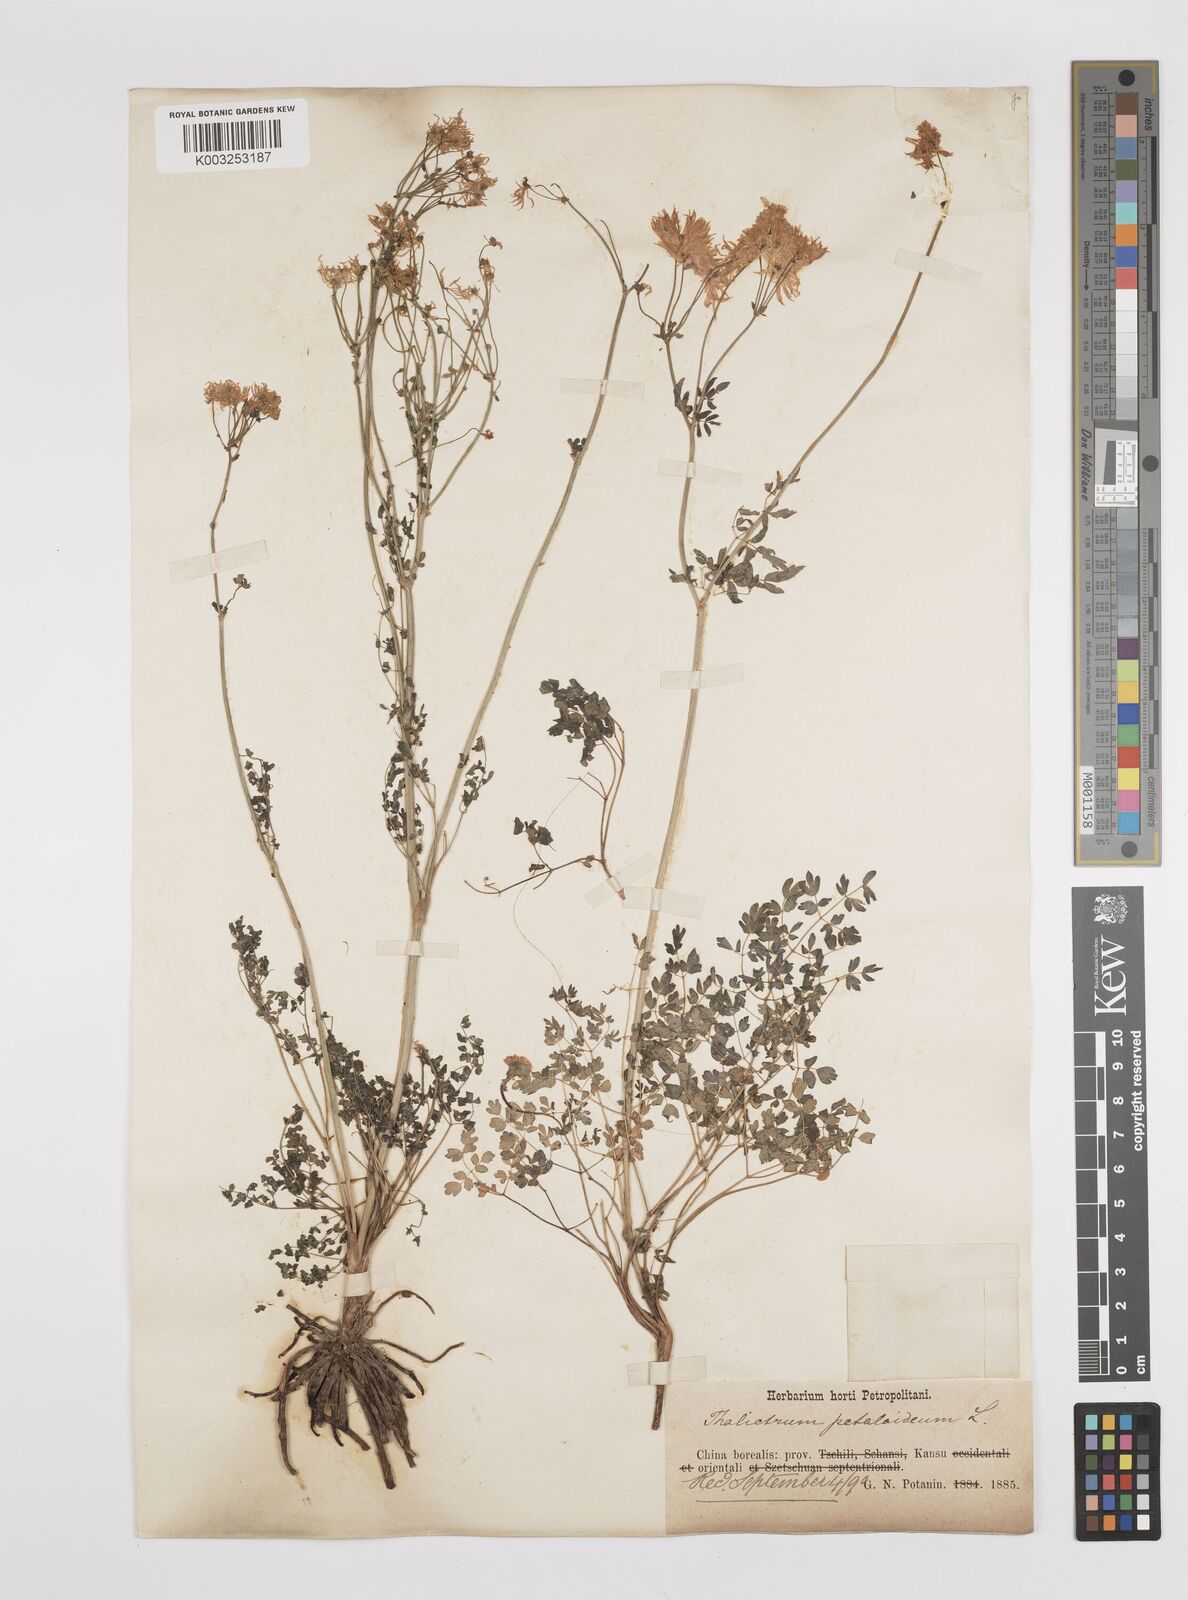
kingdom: Plantae
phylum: Tracheophyta
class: Magnoliopsida
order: Ranunculales
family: Ranunculaceae
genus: Thalictrum
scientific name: Thalictrum petaloideum
